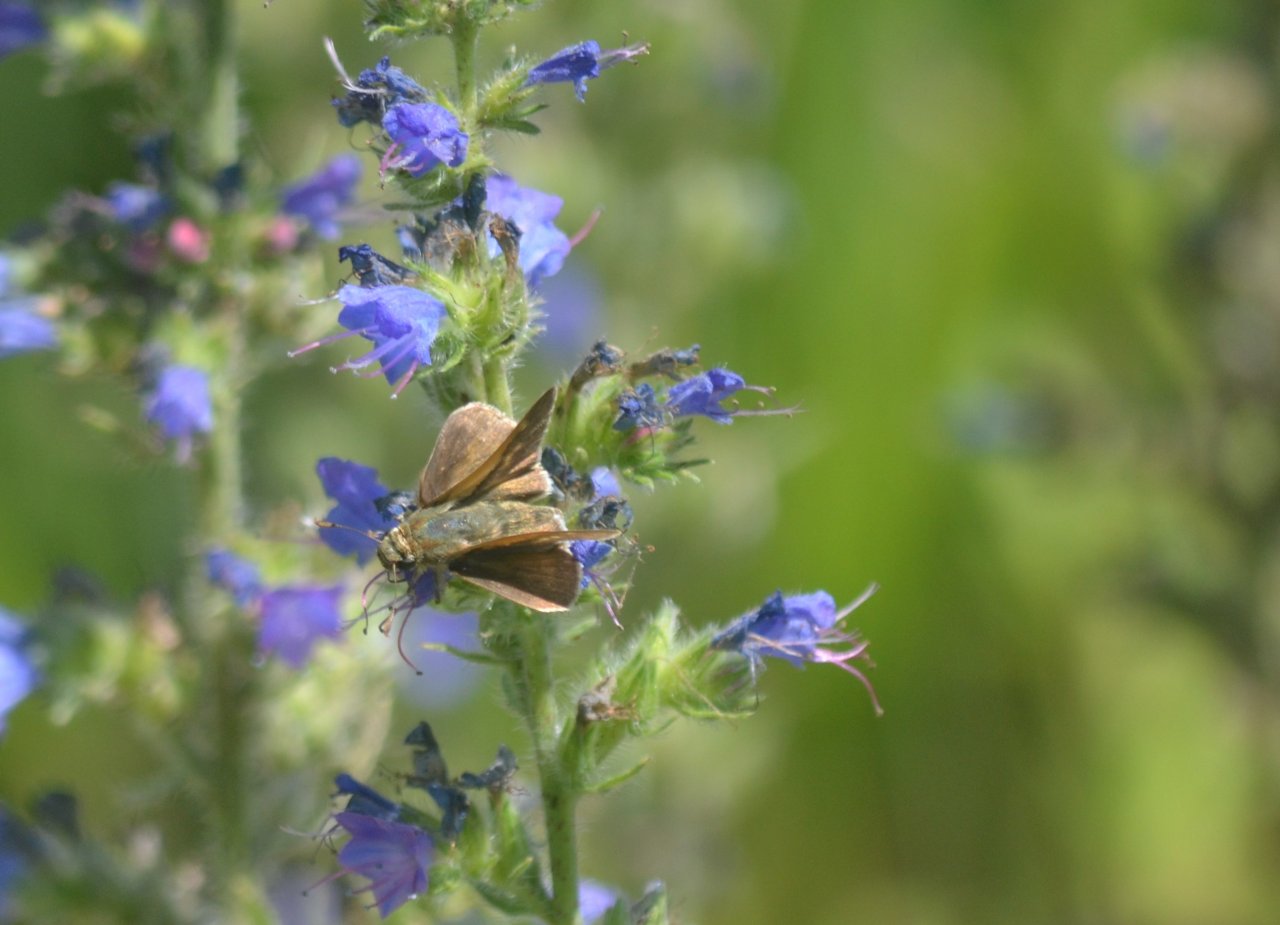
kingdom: Animalia
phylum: Arthropoda
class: Insecta
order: Lepidoptera
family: Hesperiidae
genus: Polites
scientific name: Polites
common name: Long Dash Skipper
